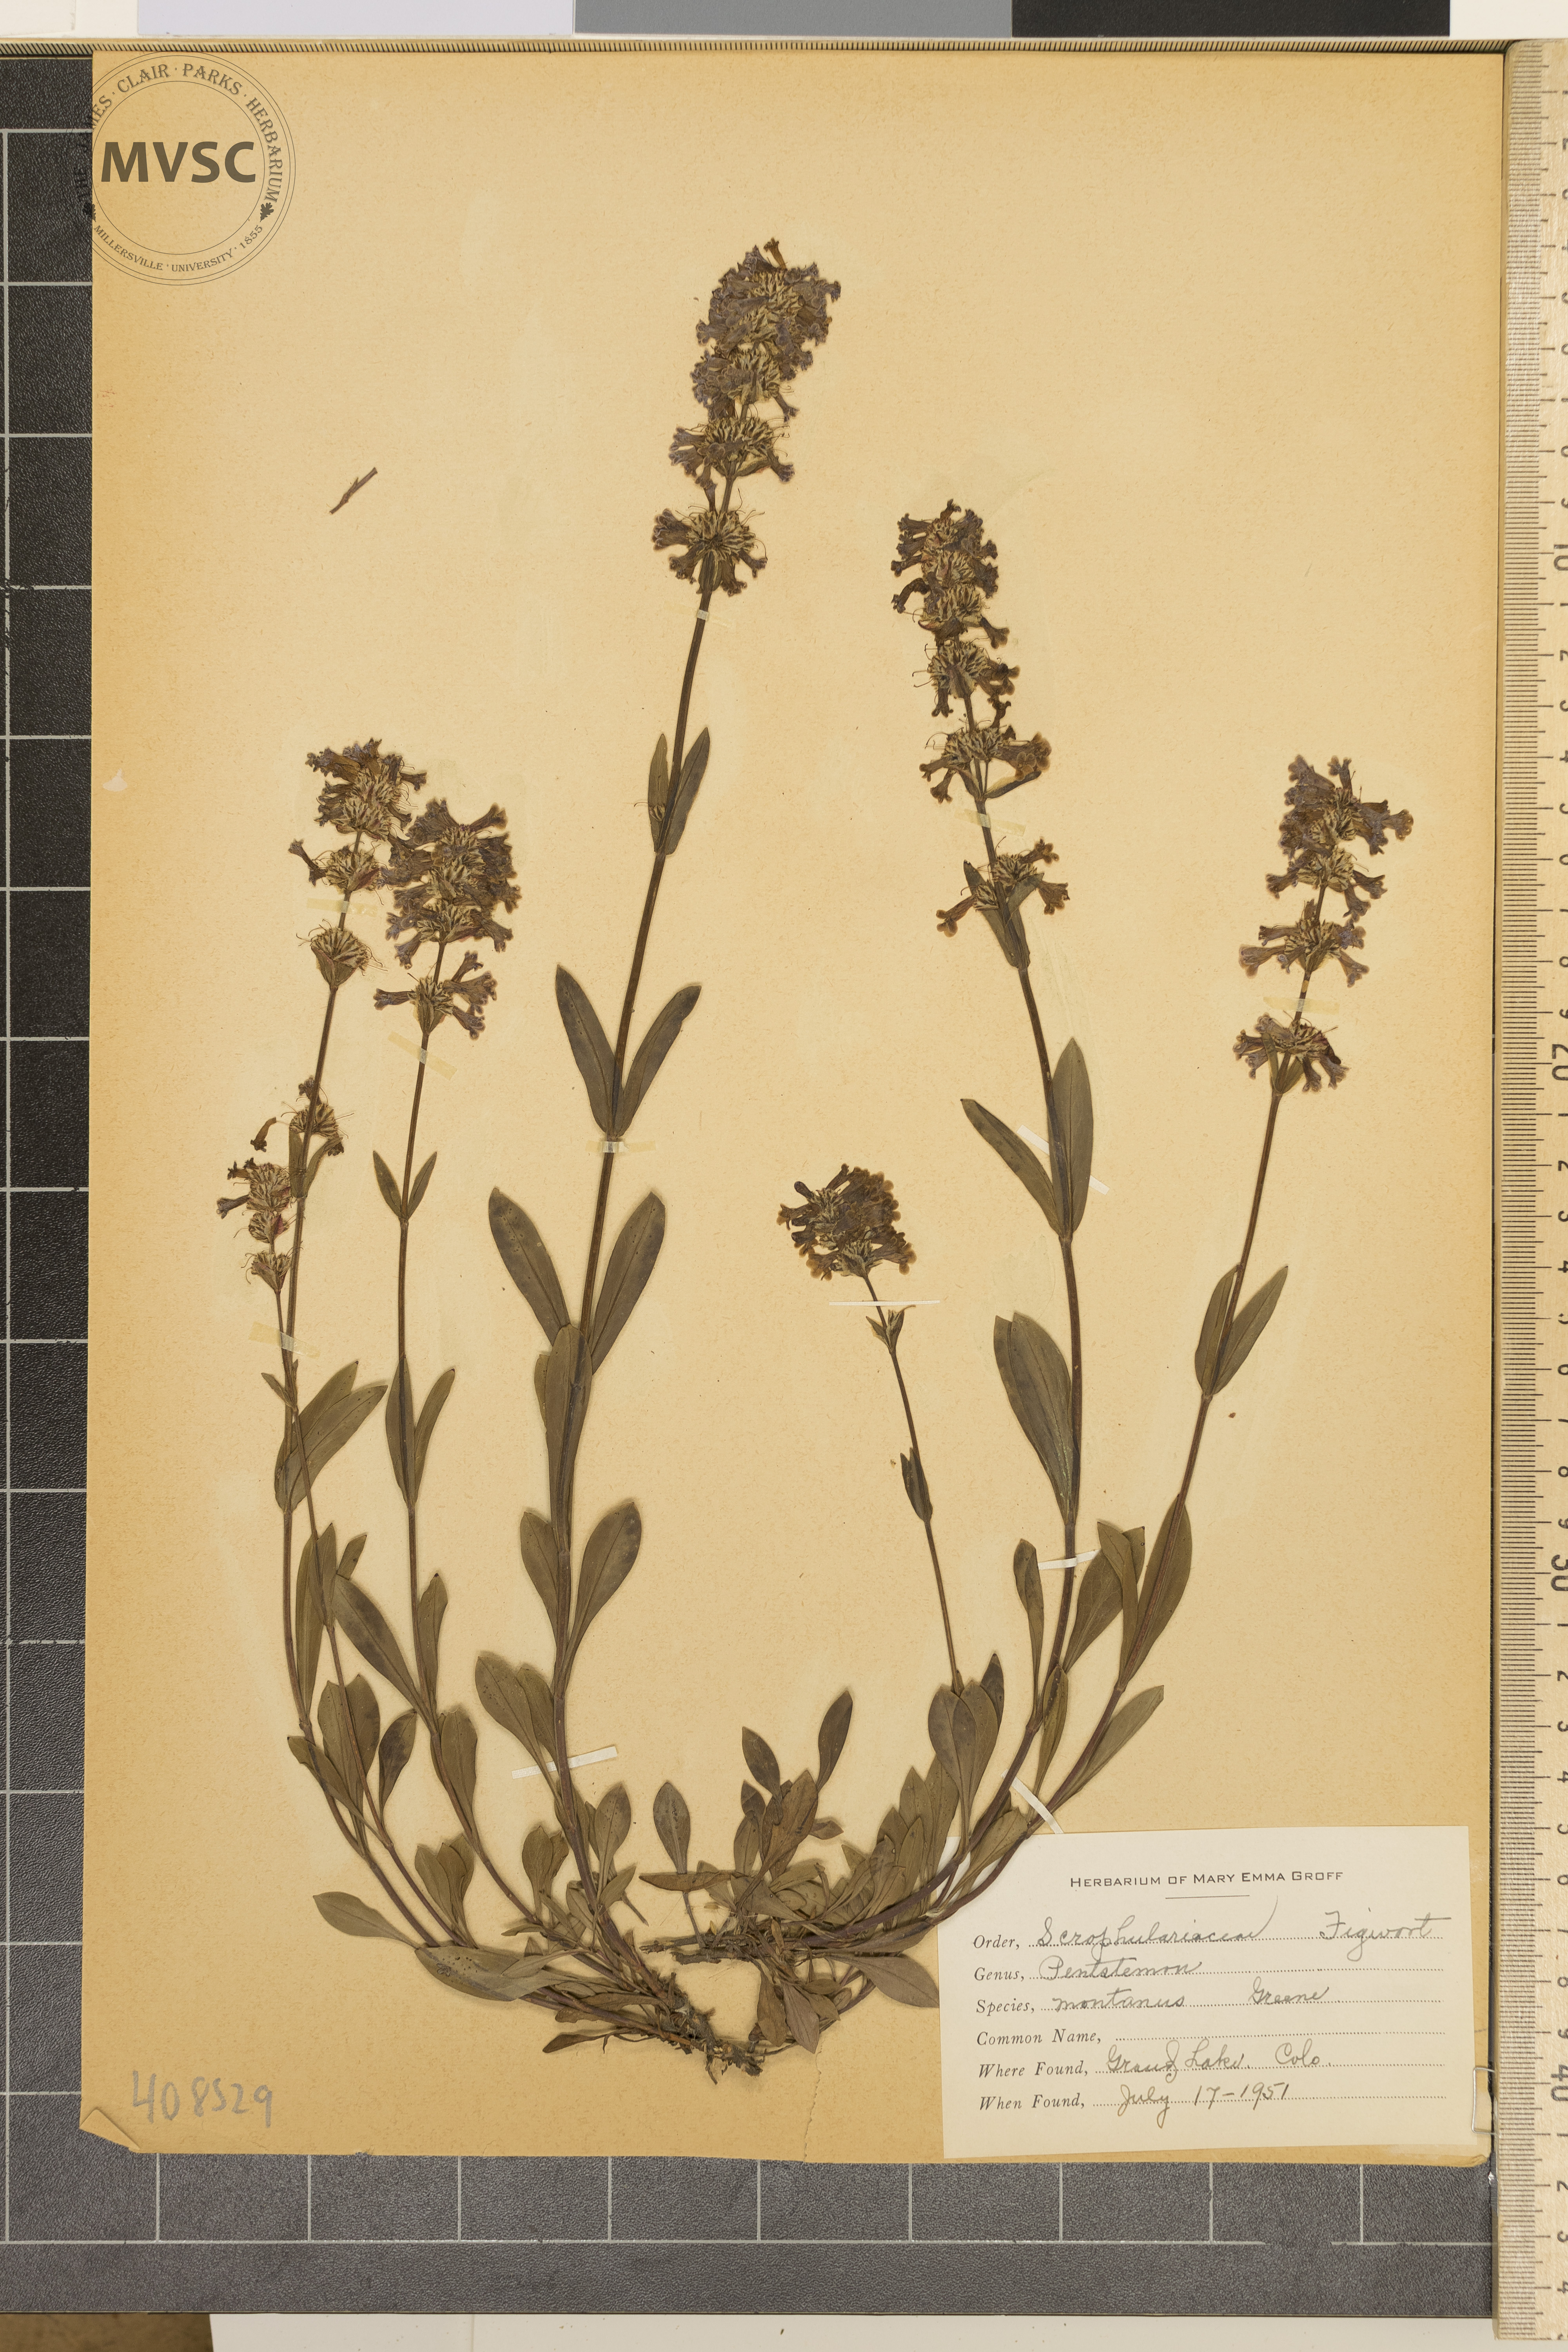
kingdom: Plantae
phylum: Tracheophyta
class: Magnoliopsida
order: Lamiales
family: Plantaginaceae
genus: Penstemon
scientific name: Penstemon montanus
